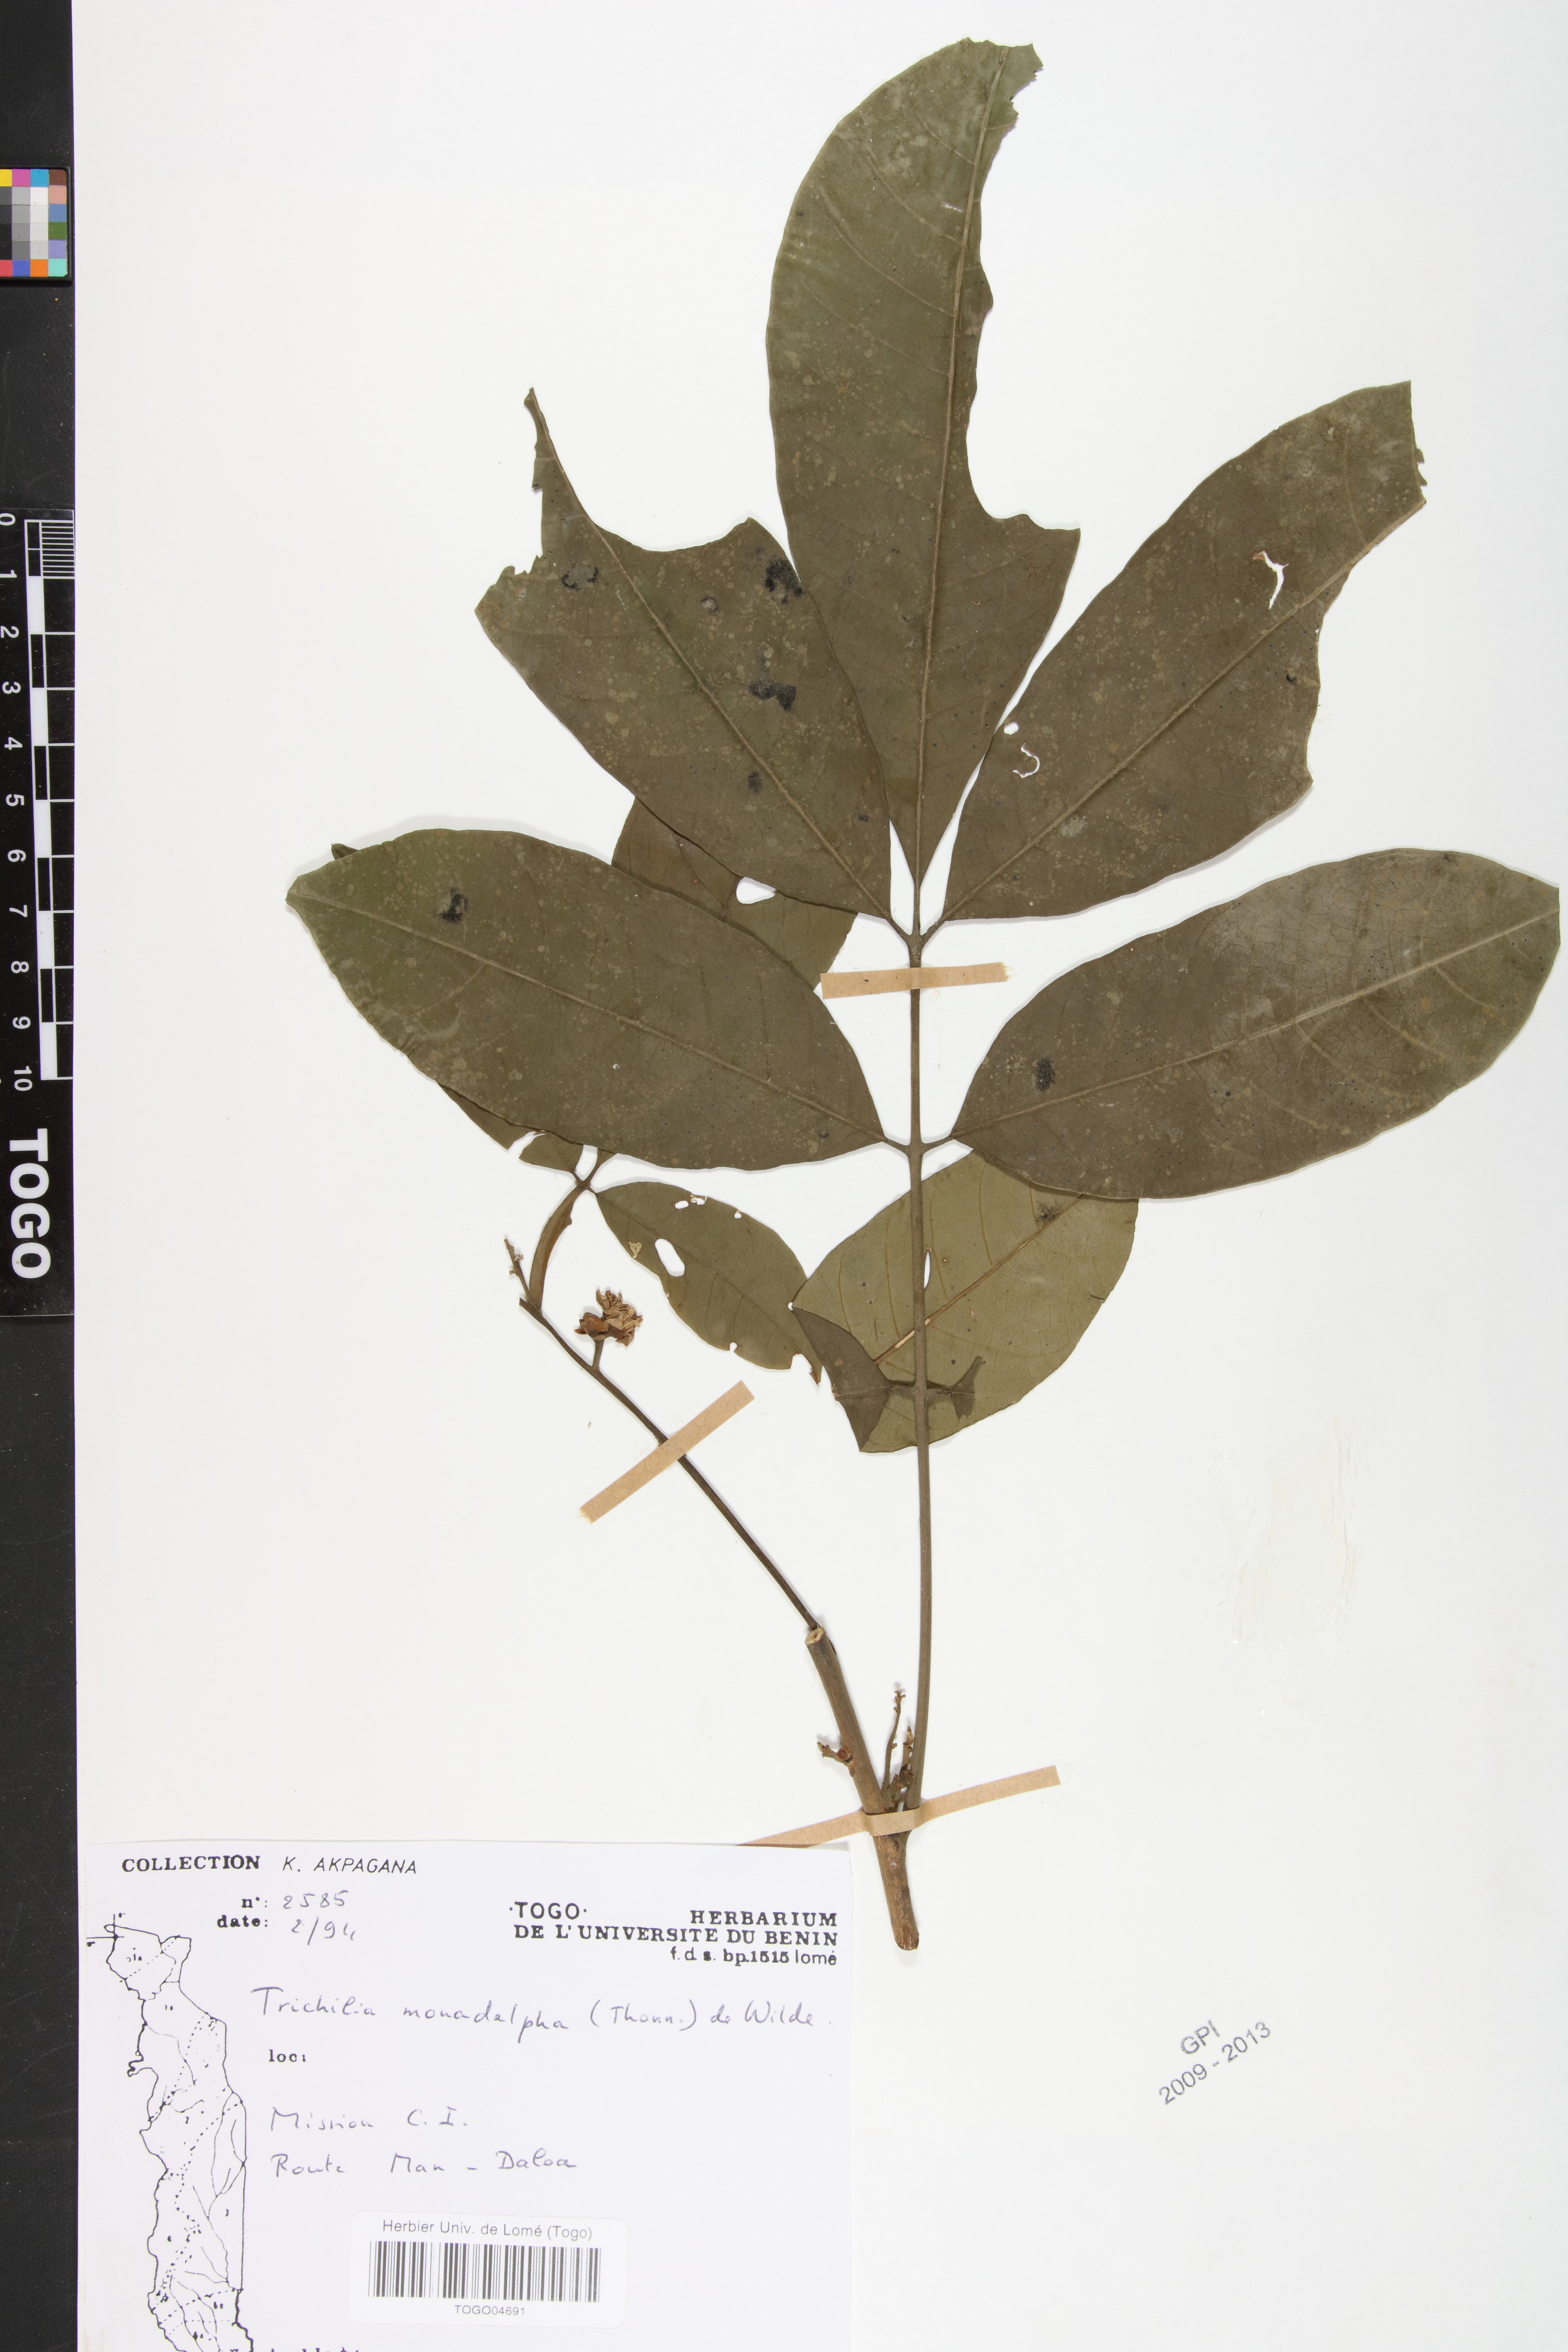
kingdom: Plantae
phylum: Tracheophyta
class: Magnoliopsida
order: Sapindales
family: Meliaceae
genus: Trichilia
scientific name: Trichilia monadelpha
